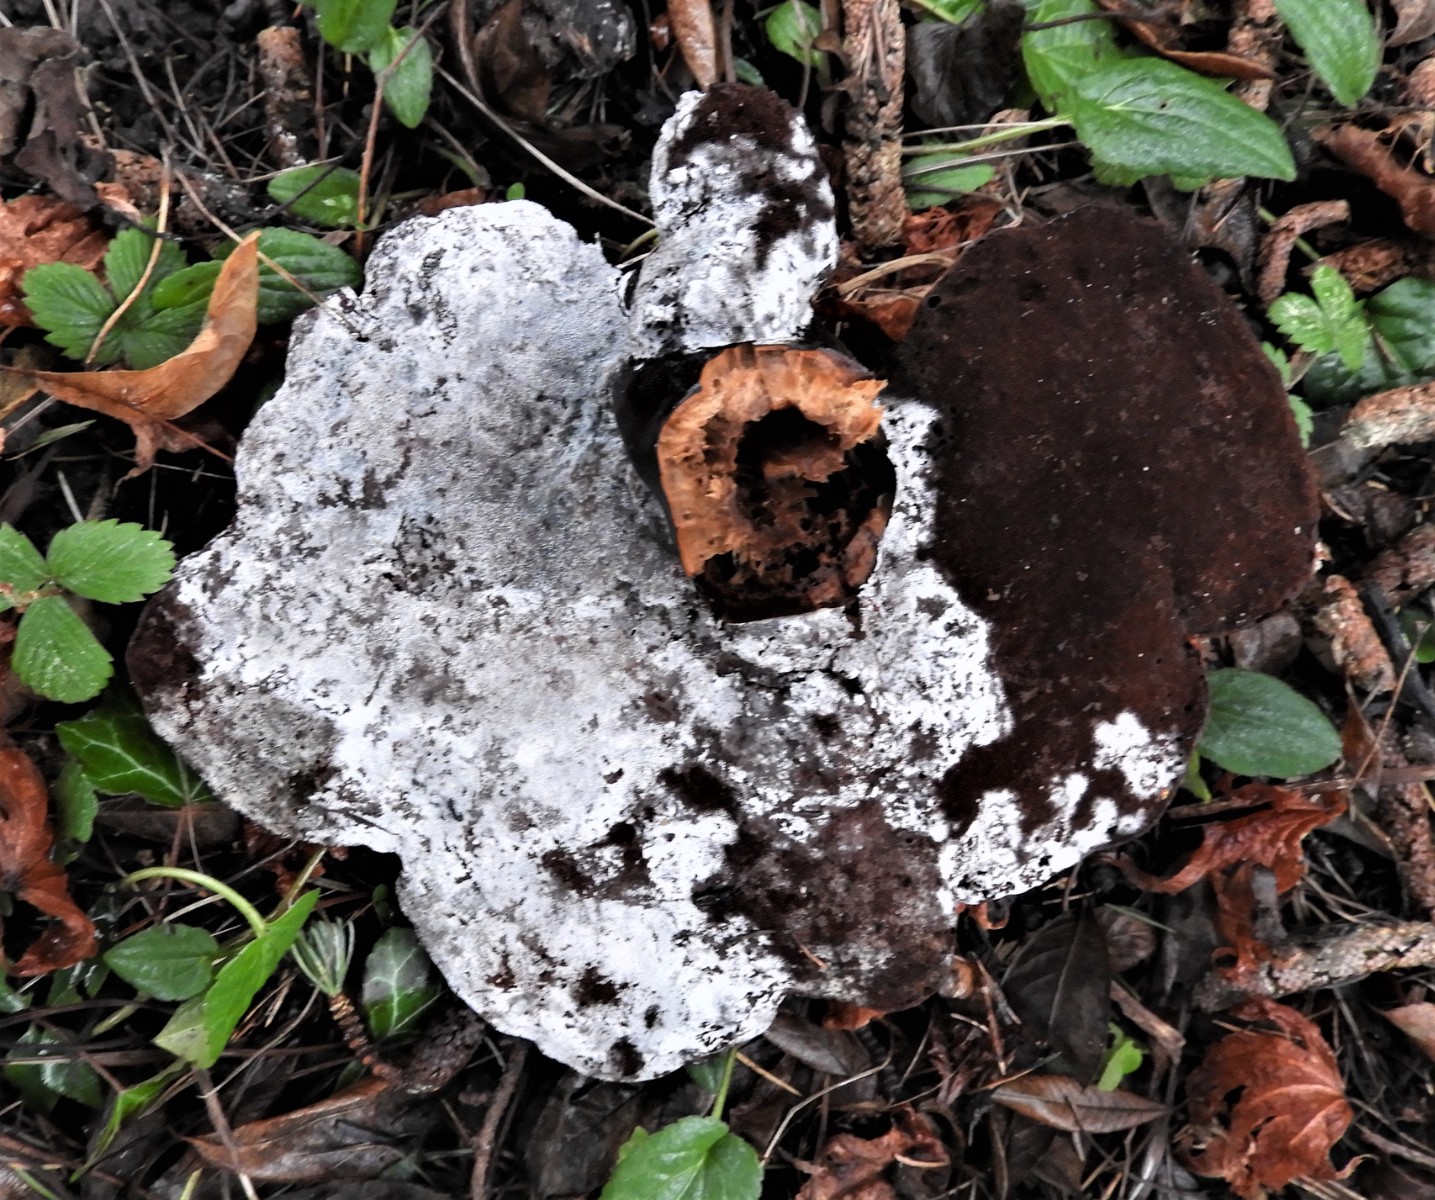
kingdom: Fungi
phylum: Basidiomycota
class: Agaricomycetes
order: Polyporales
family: Polyporaceae
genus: Ganoderma
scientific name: Ganoderma lucidum
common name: skinnende lakporesvamp
